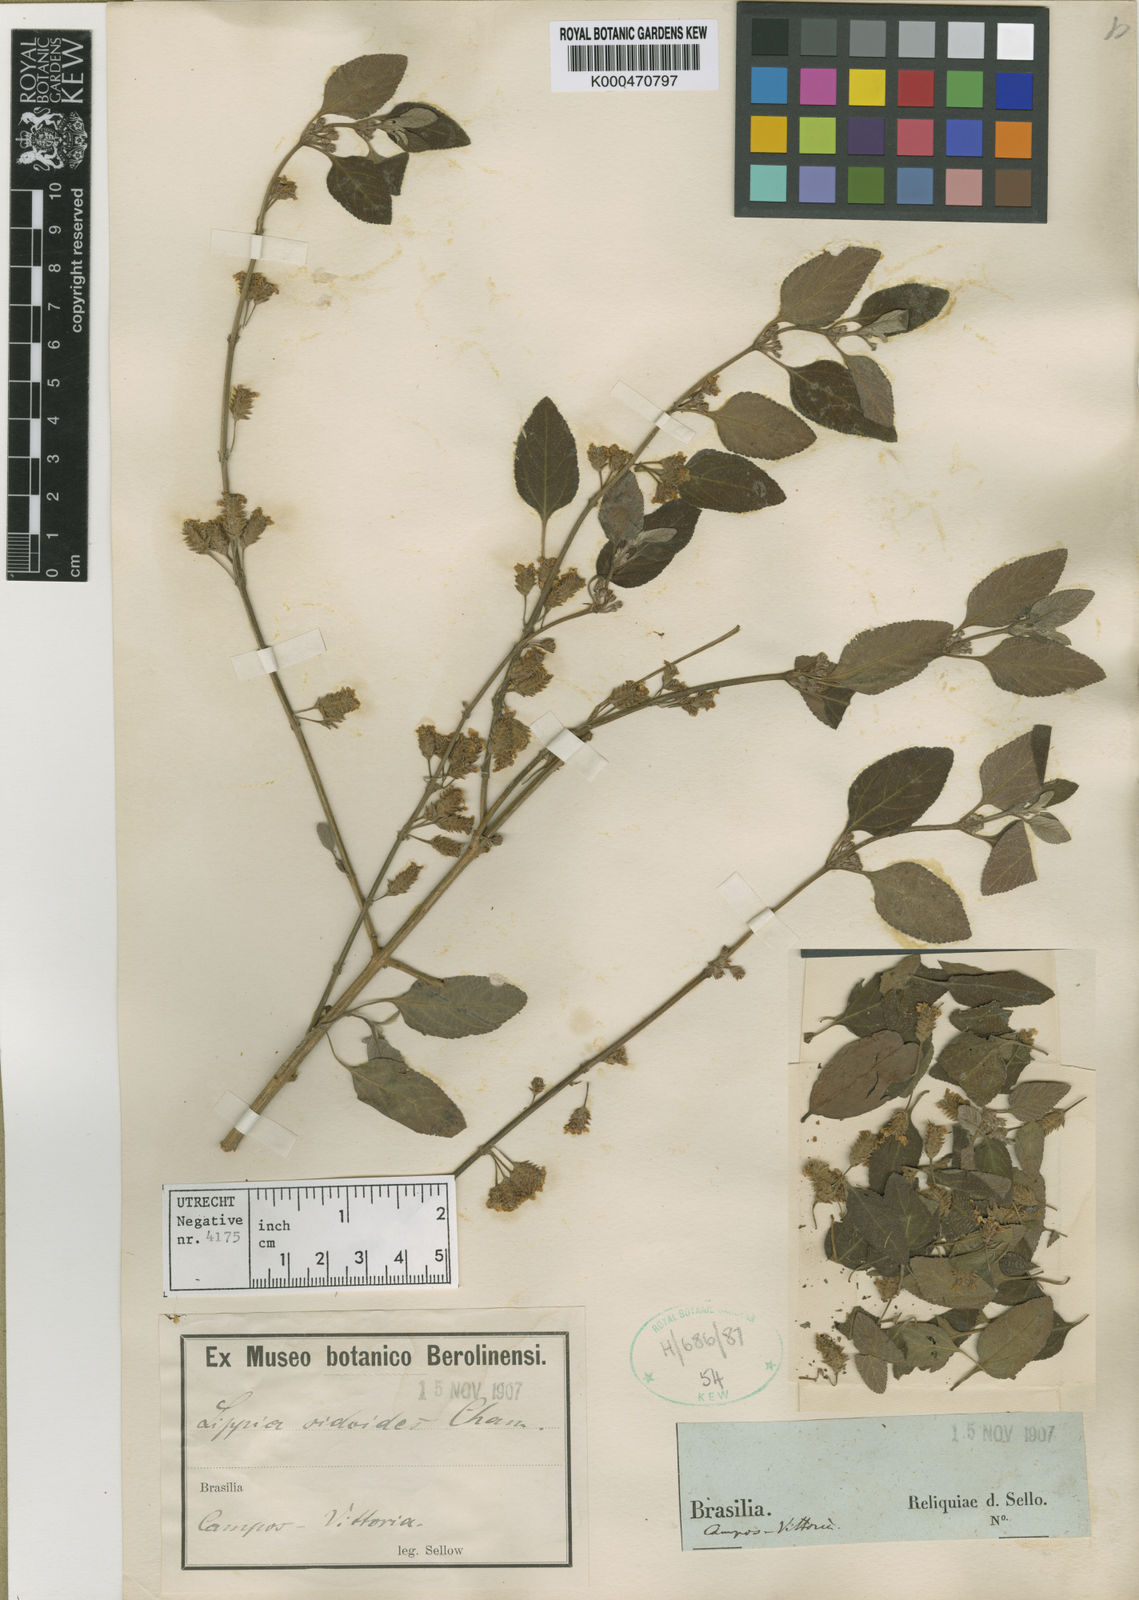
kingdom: Plantae
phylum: Tracheophyta
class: Magnoliopsida
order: Lamiales
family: Verbenaceae
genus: Lippia
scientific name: Lippia origanoides
